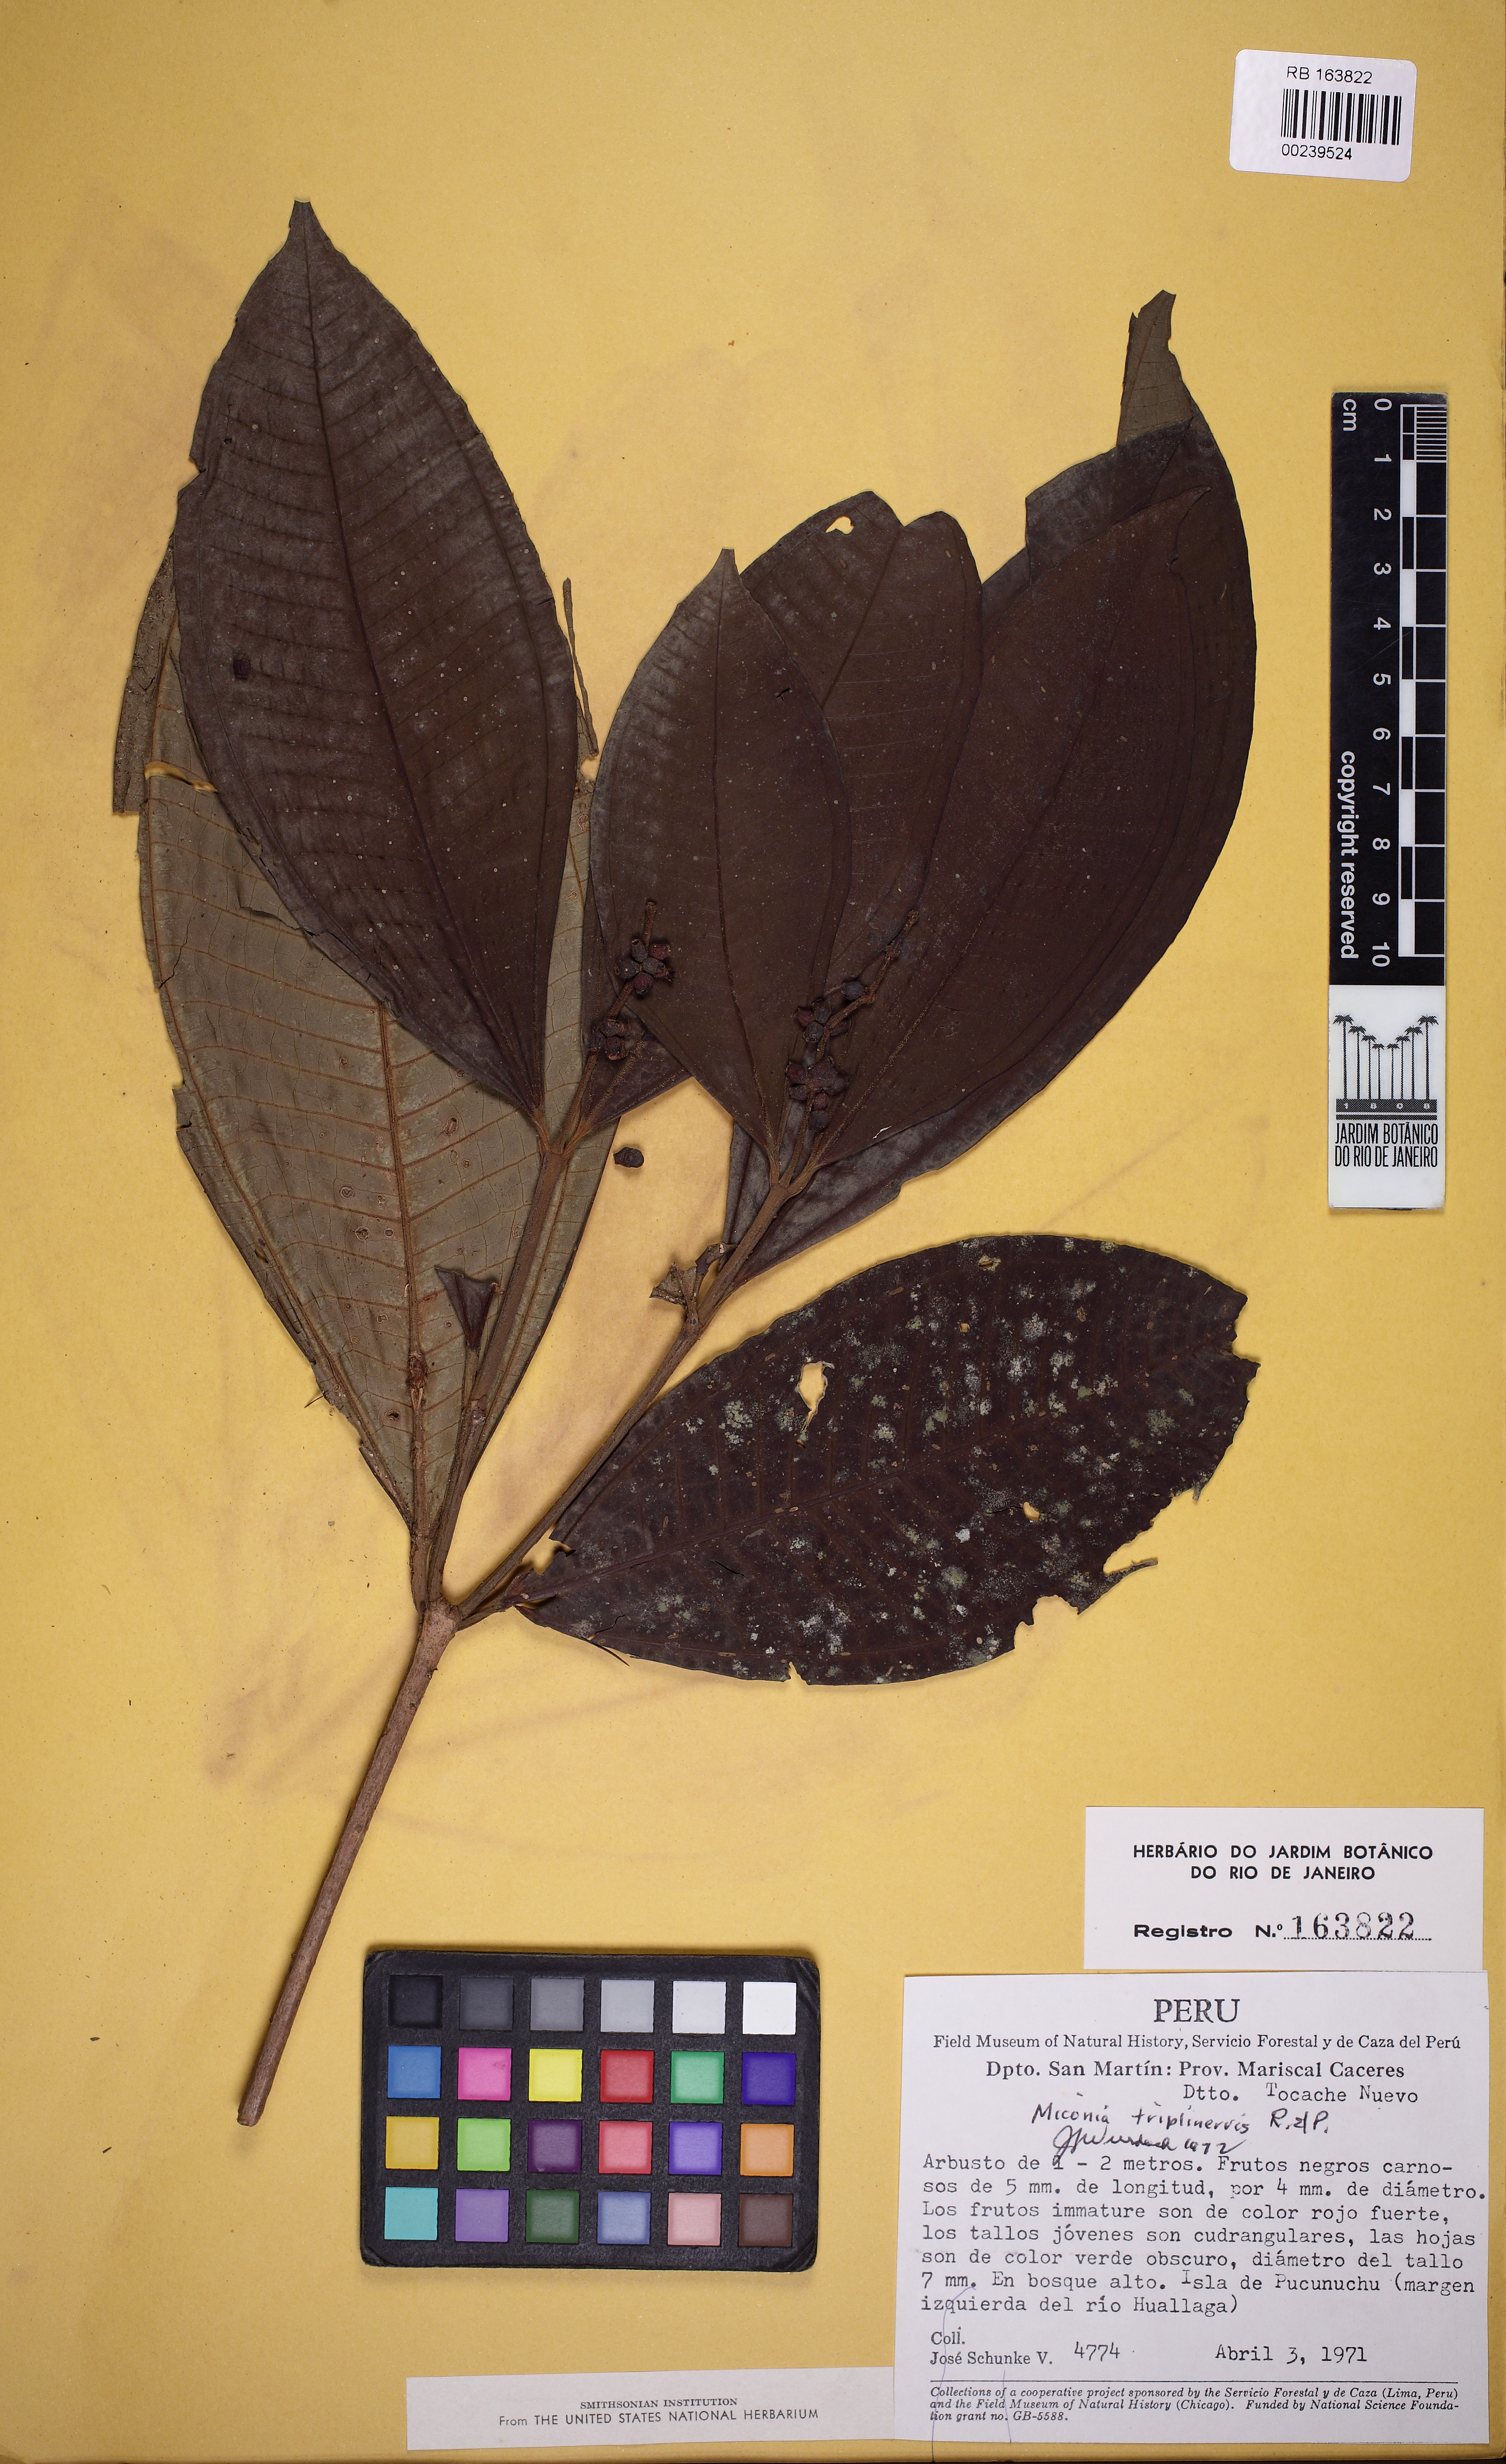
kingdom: Plantae
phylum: Tracheophyta
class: Magnoliopsida
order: Myrtales
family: Melastomataceae
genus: Miconia
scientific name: Miconia triplinervis
